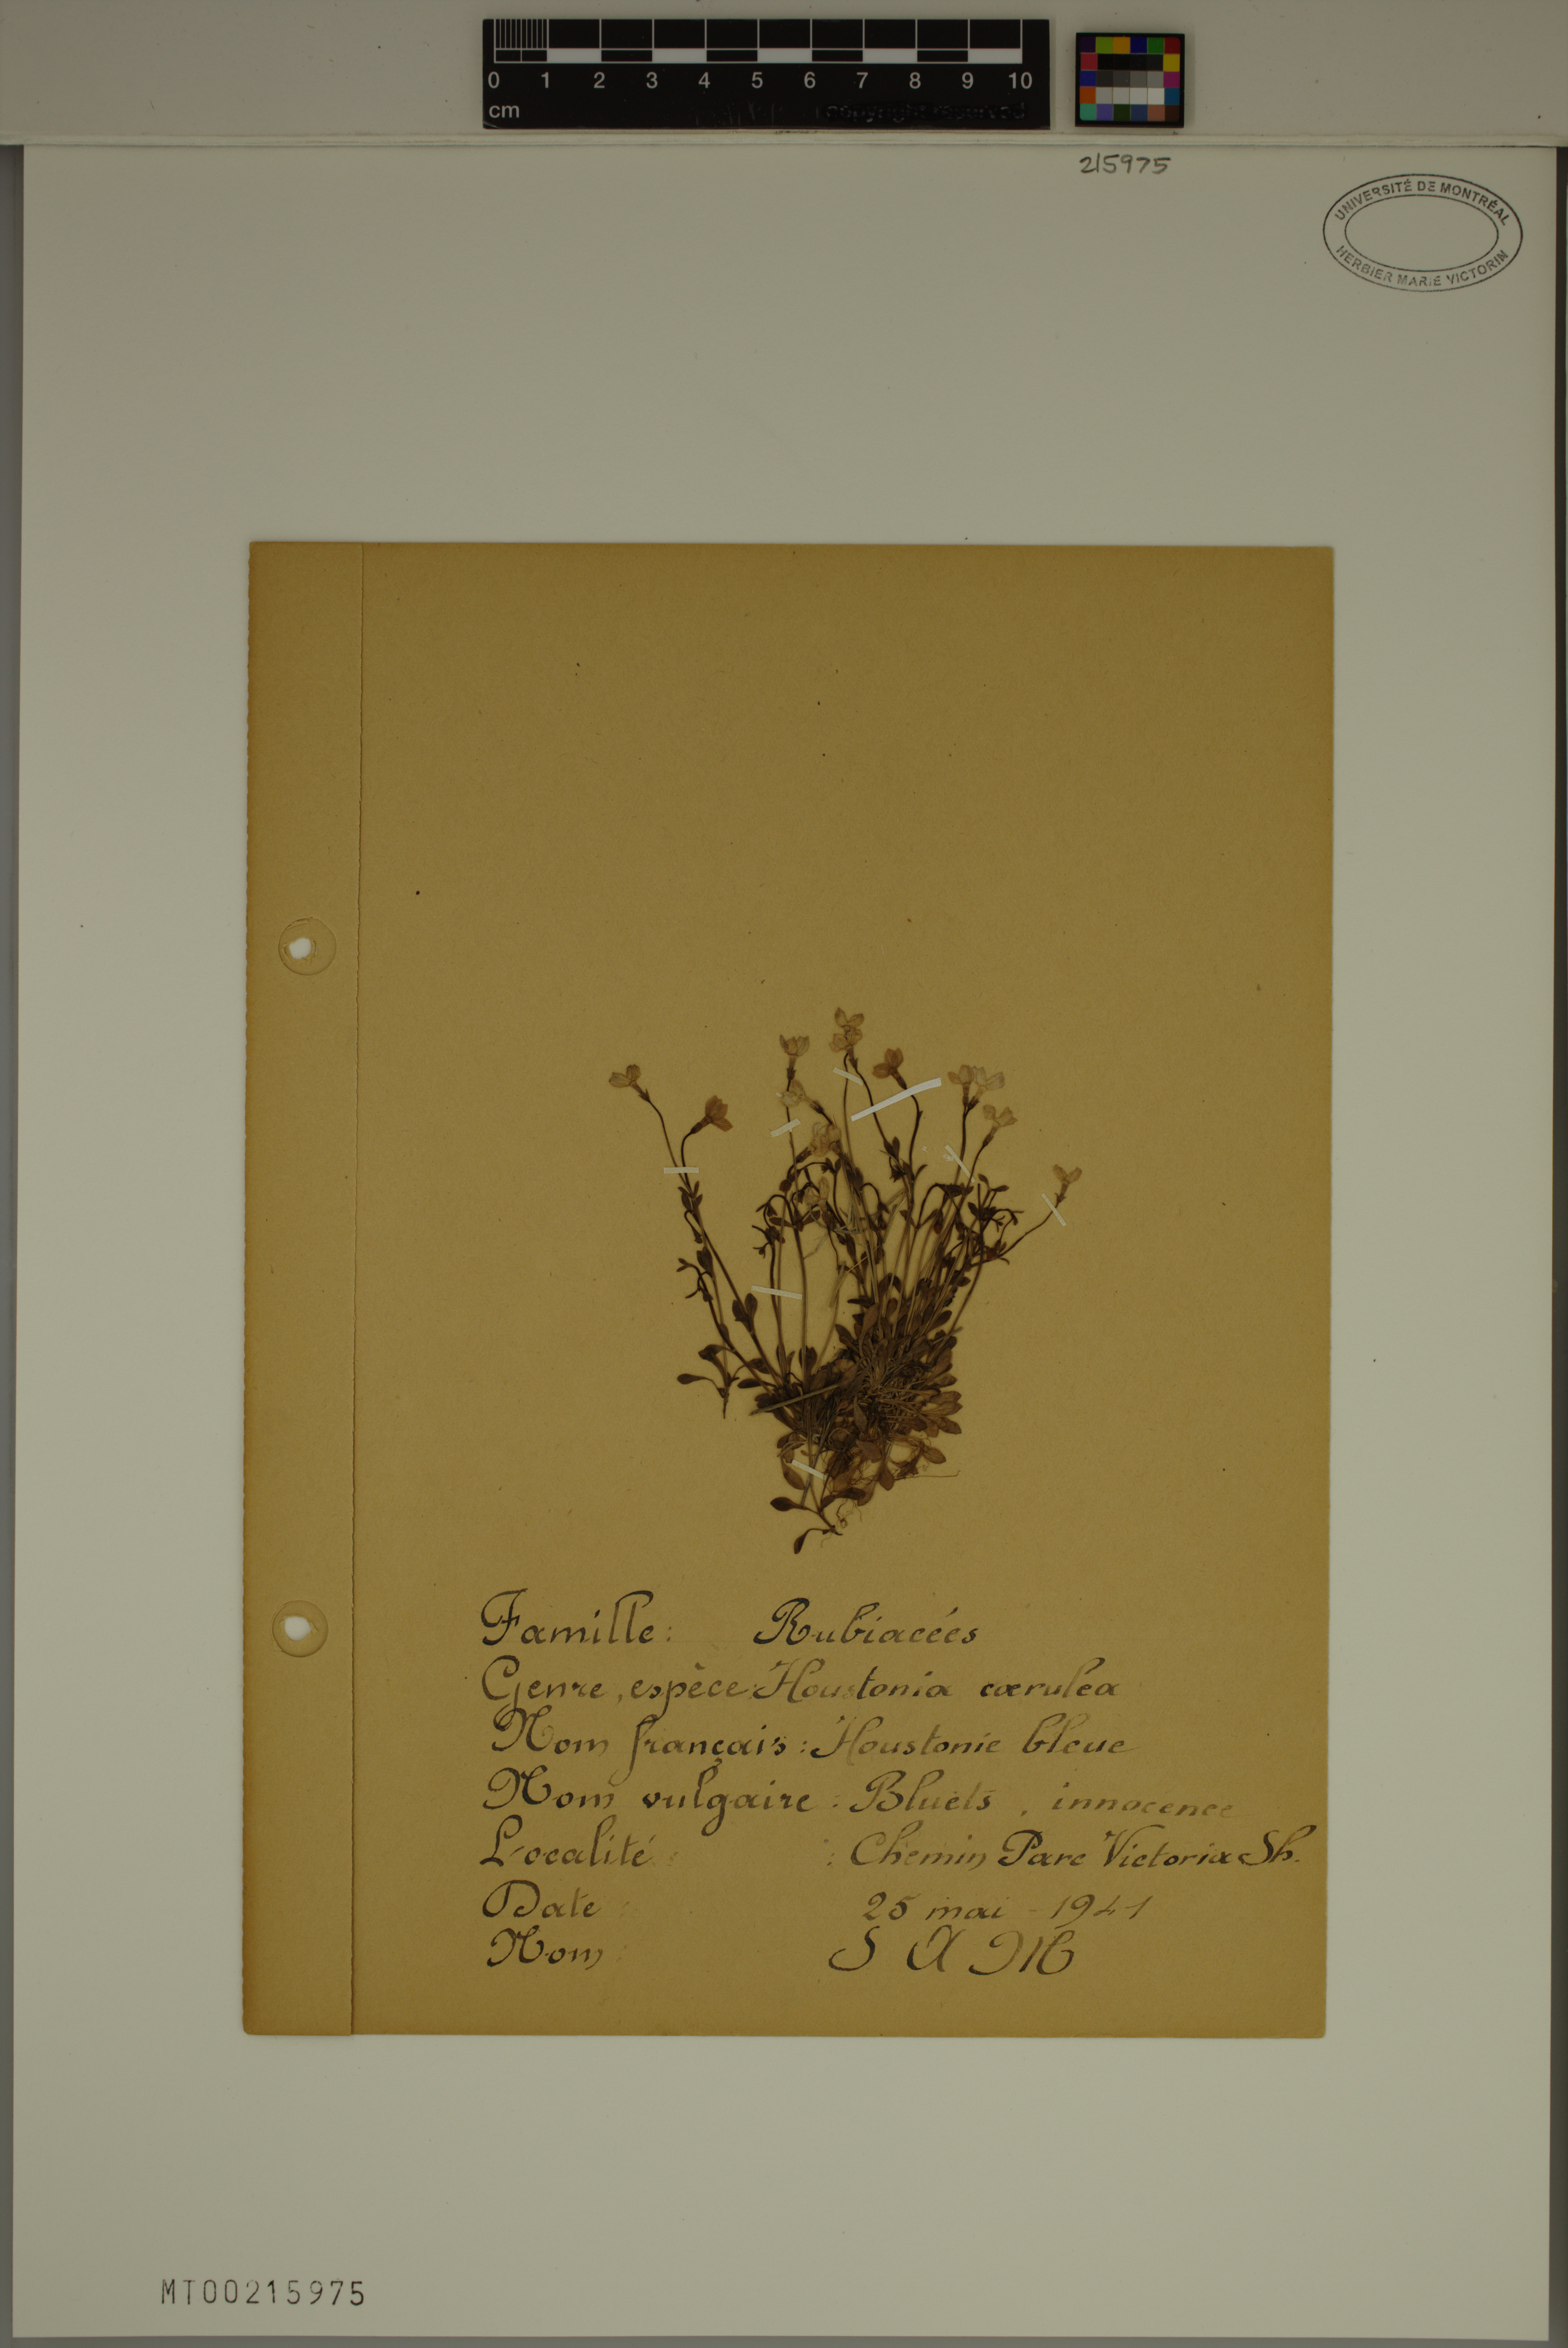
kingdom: Plantae
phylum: Tracheophyta
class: Magnoliopsida
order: Gentianales
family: Rubiaceae
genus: Houstonia
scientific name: Houstonia caerulea
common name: Bluets
